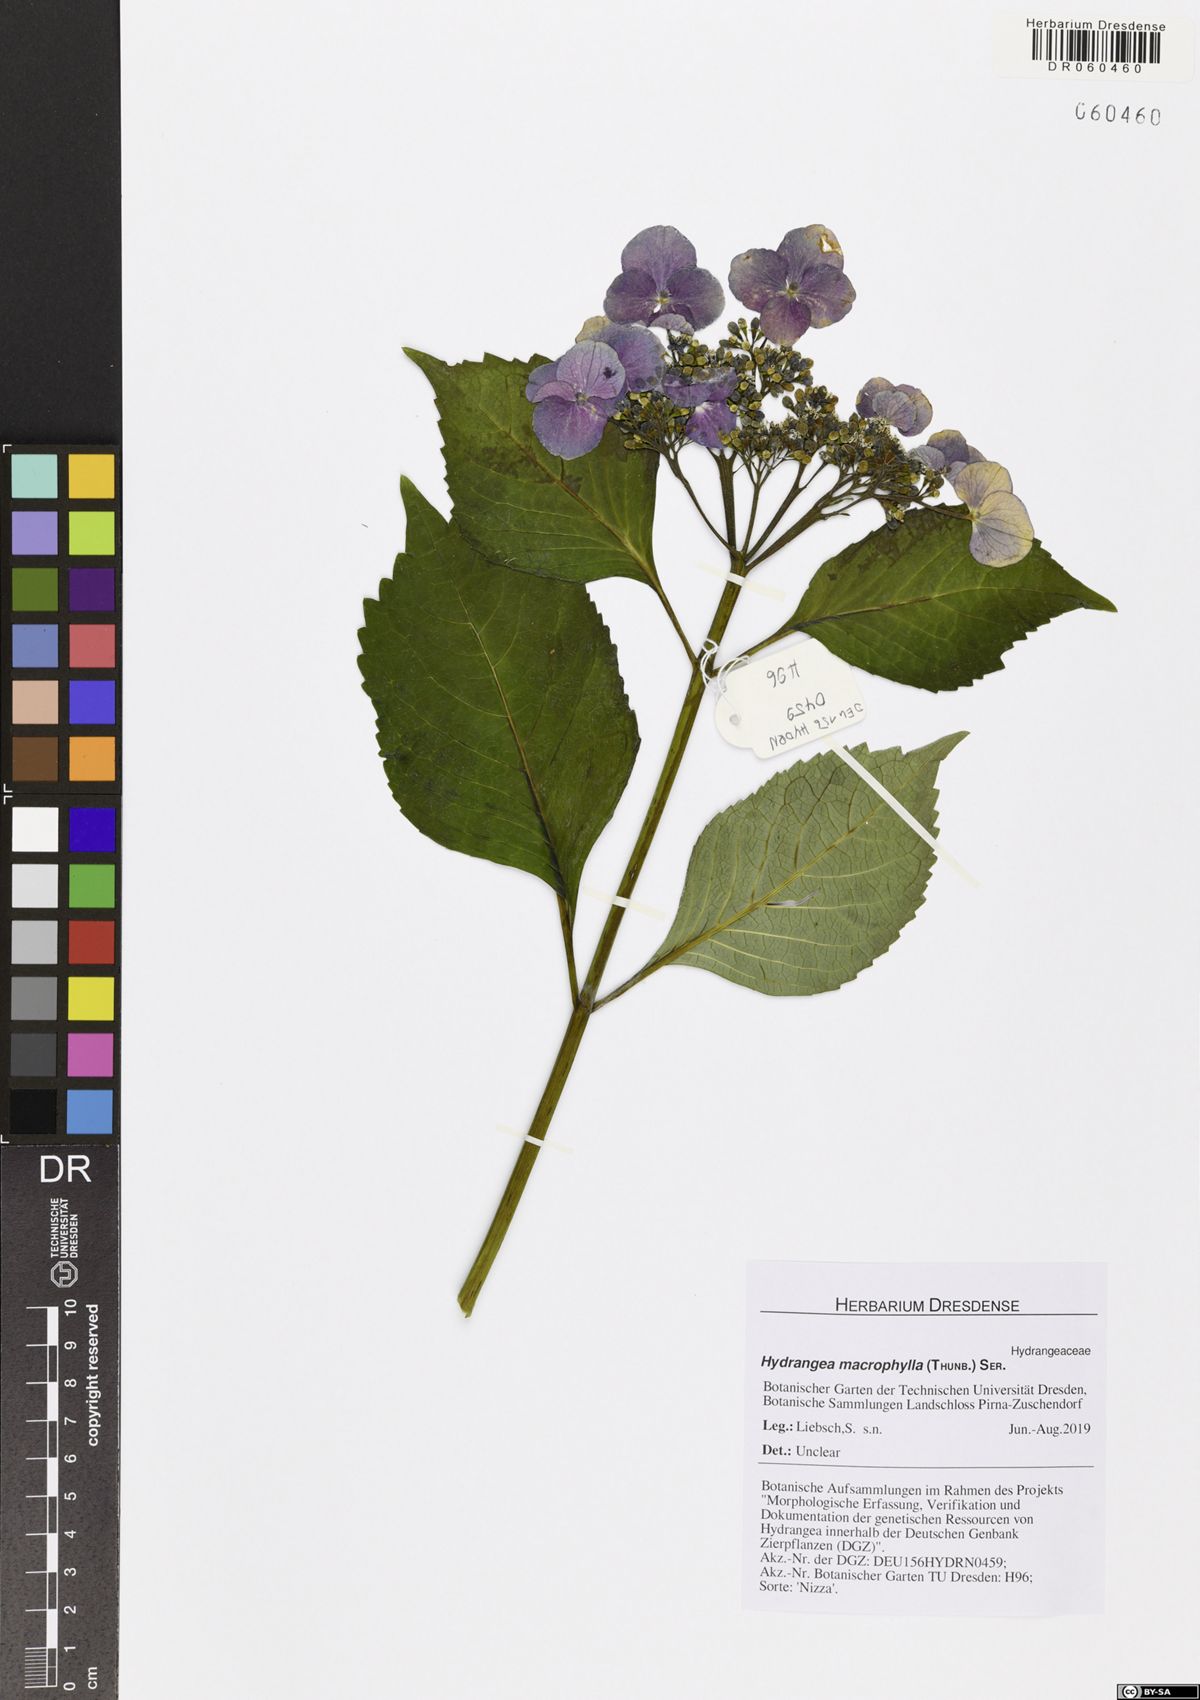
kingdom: Plantae
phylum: Tracheophyta
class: Magnoliopsida
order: Cornales
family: Hydrangeaceae
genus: Hydrangea
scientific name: Hydrangea macrophylla
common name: Hydrangea
